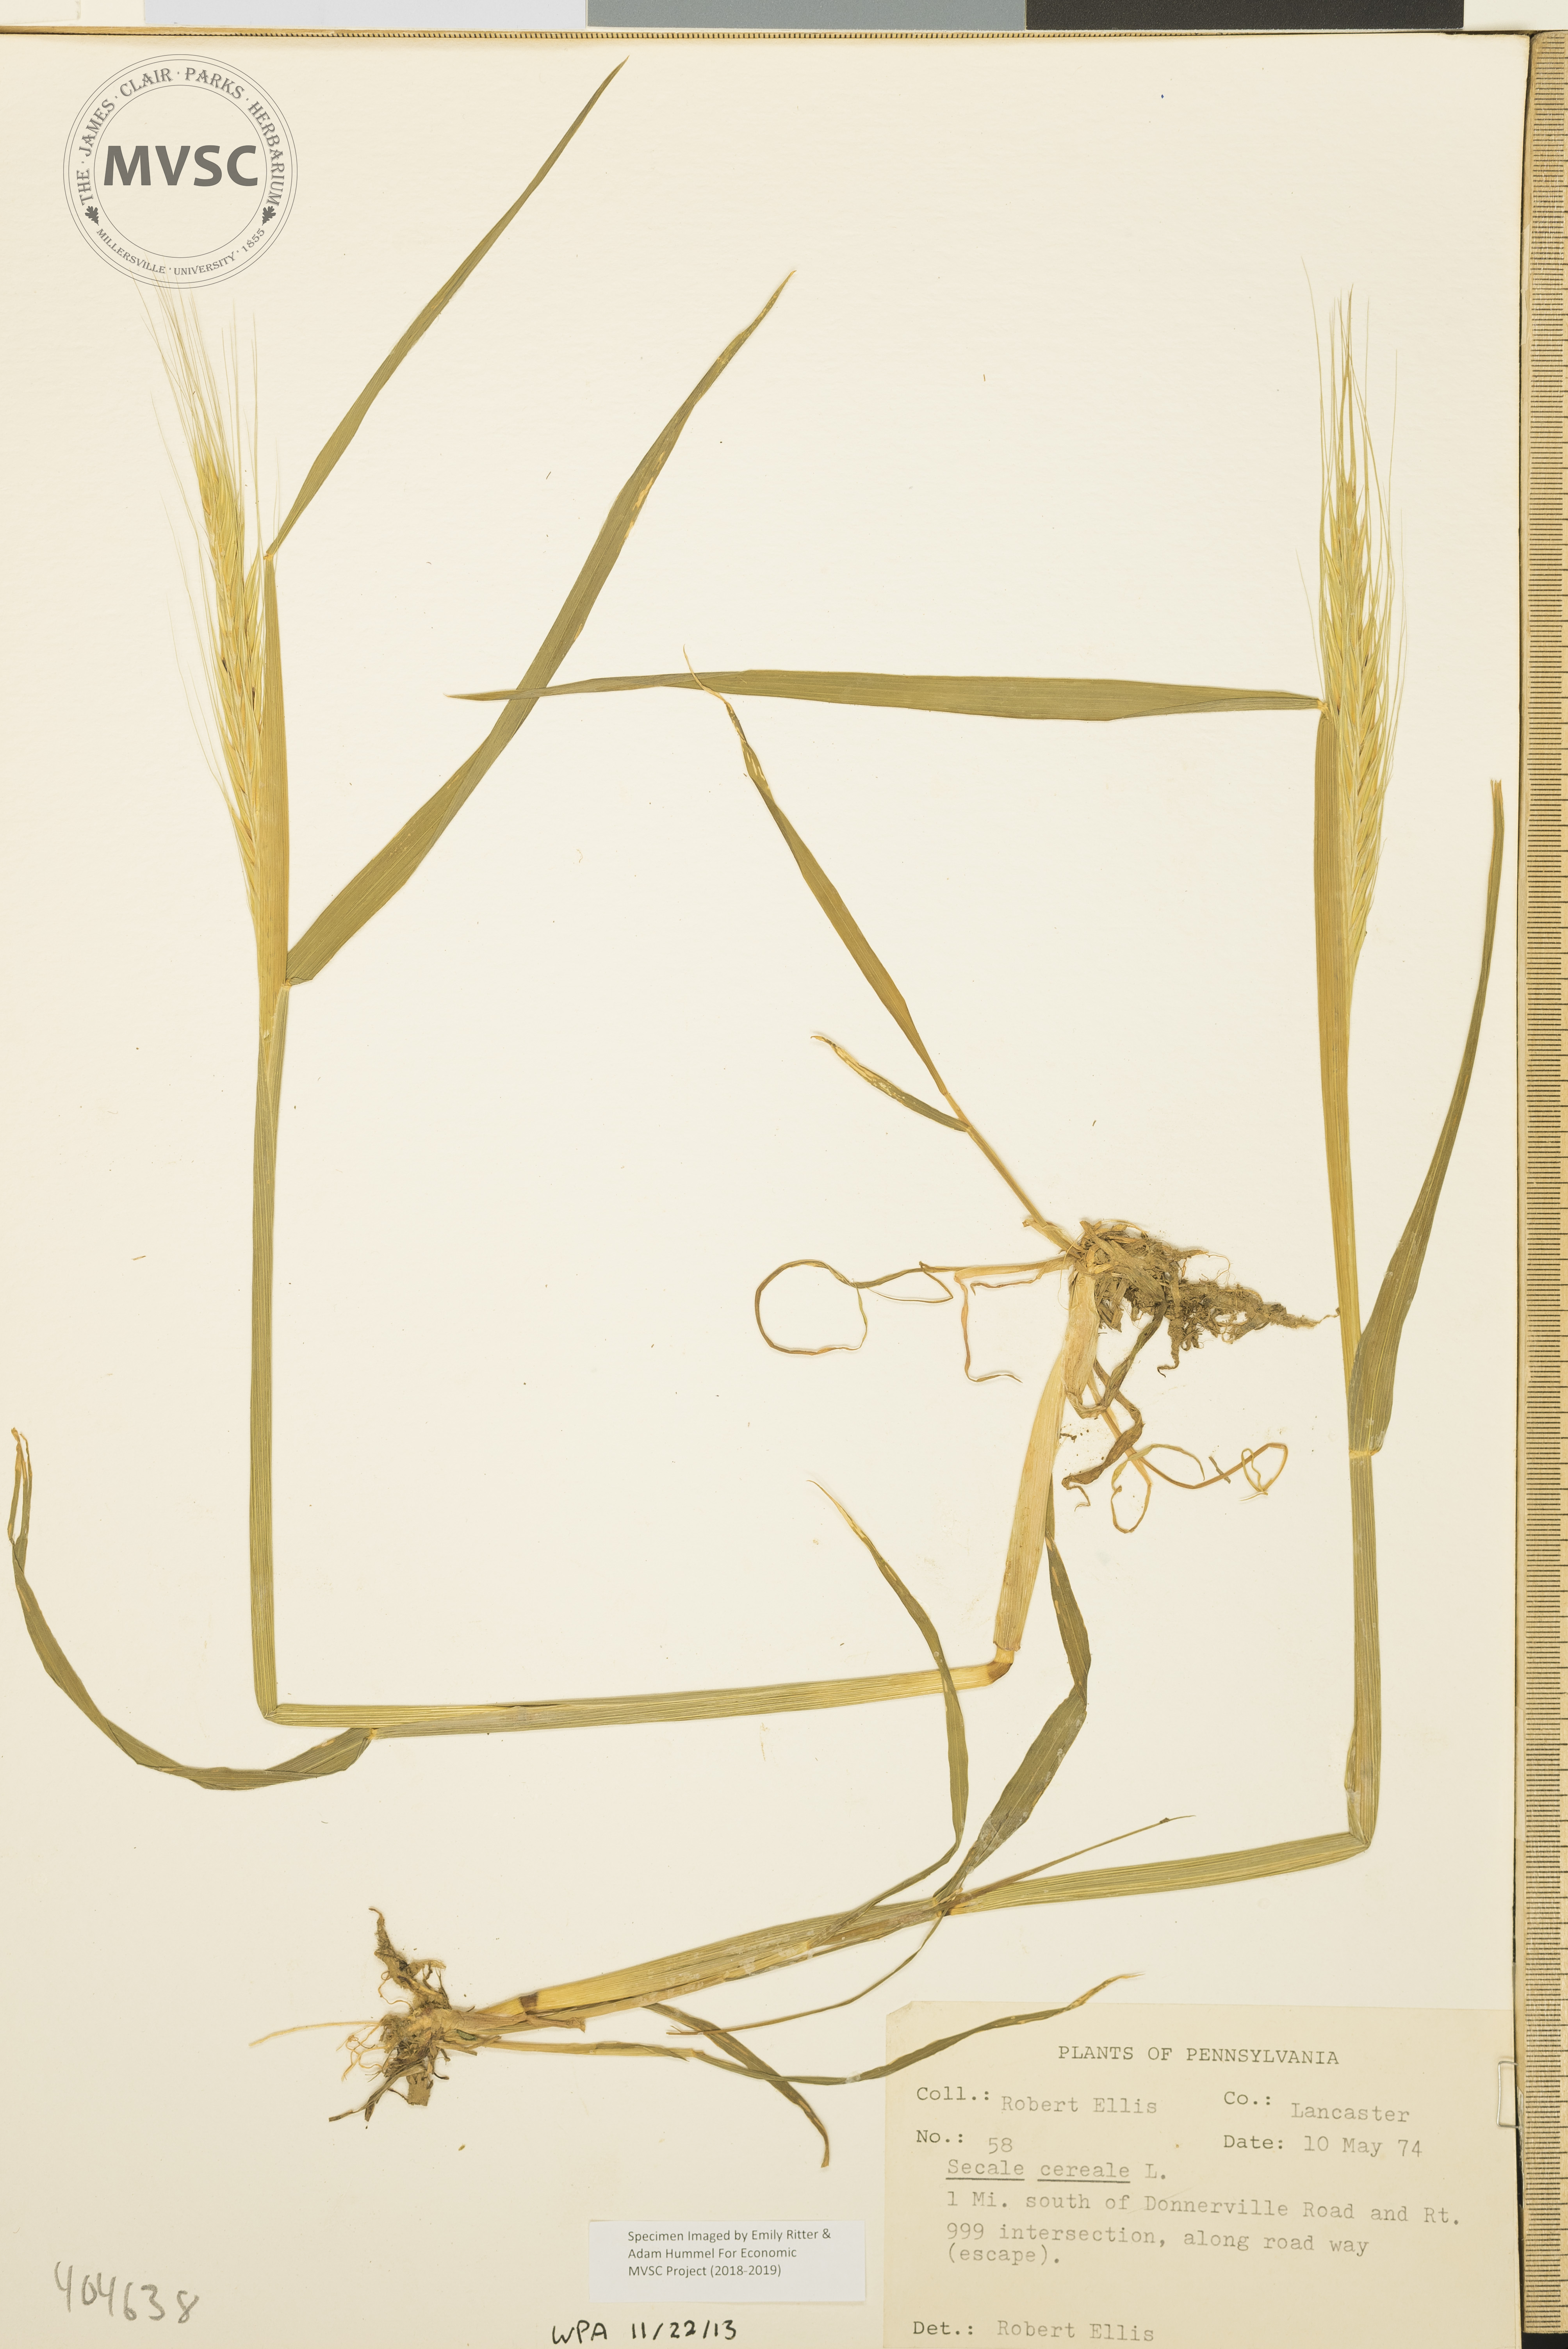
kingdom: Plantae
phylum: Tracheophyta
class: Liliopsida
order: Poales
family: Poaceae
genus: Secale
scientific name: Secale cereale
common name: Rye
